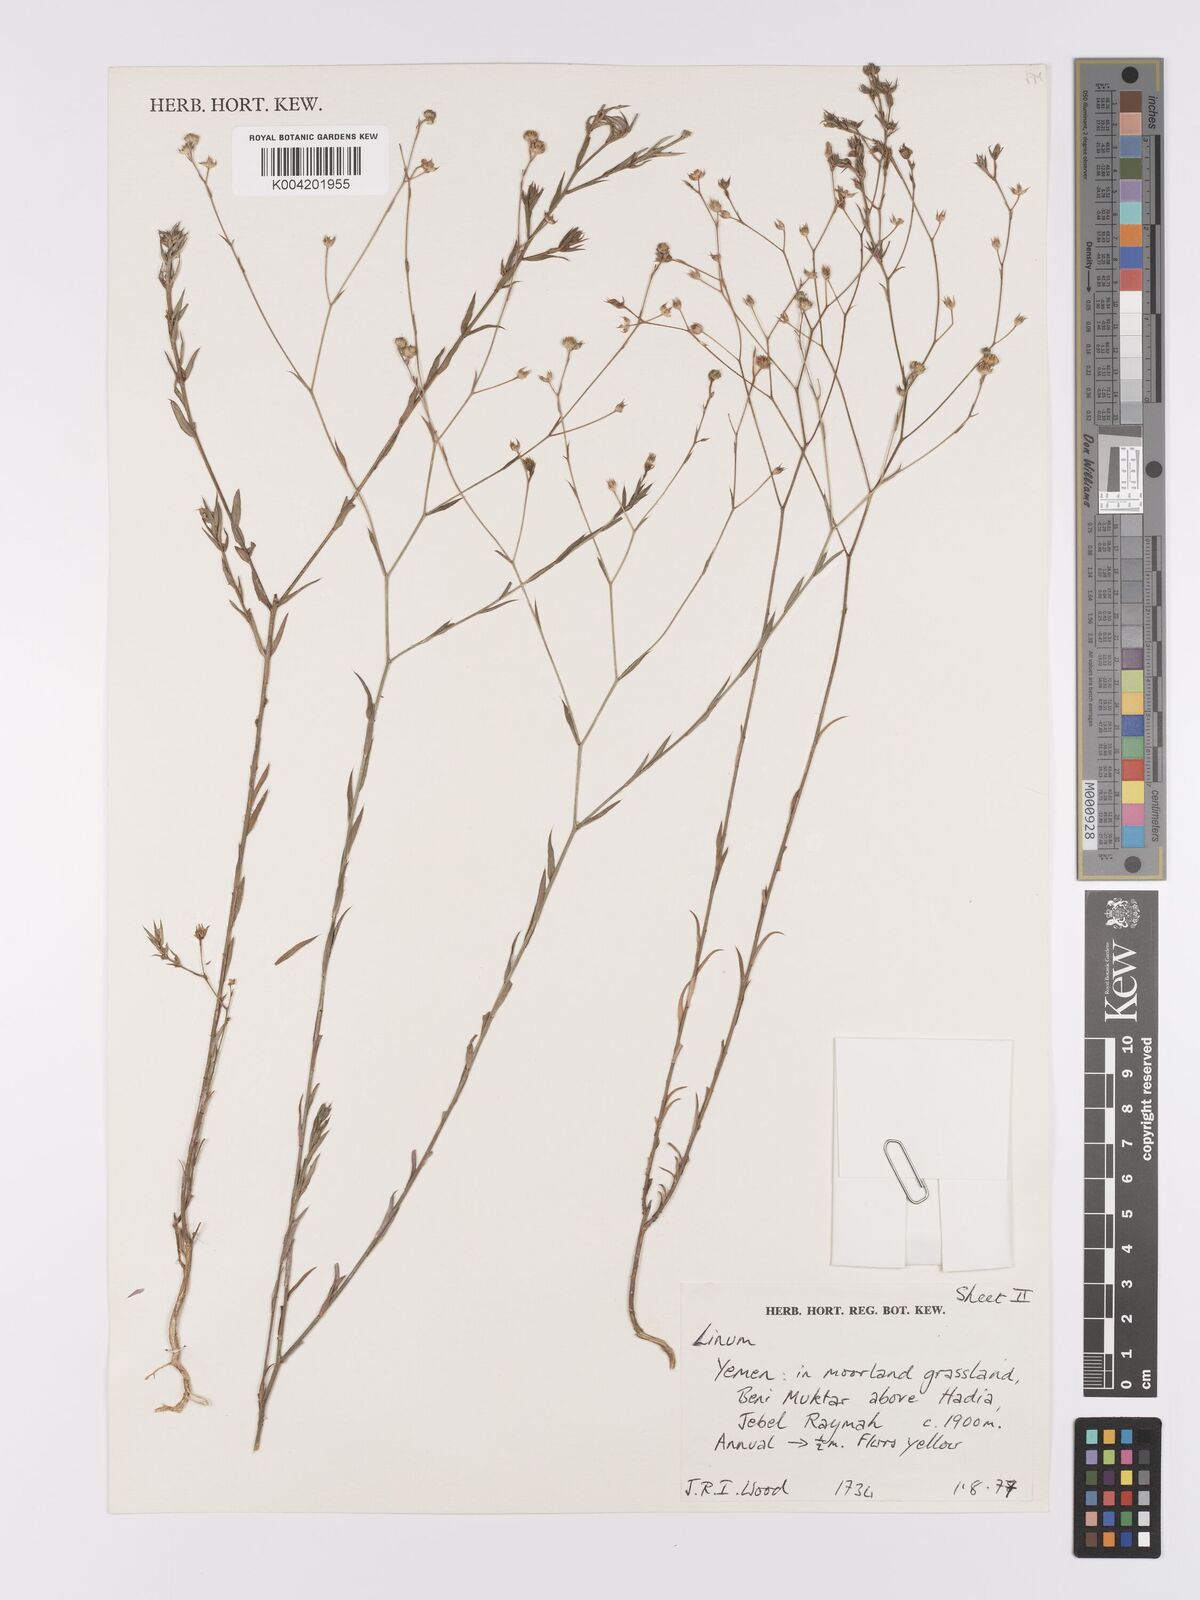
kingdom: Plantae
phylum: Tracheophyta
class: Magnoliopsida
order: Malpighiales
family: Linaceae
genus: Linum
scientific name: Linum
